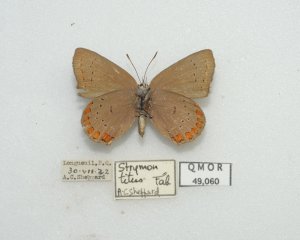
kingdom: Animalia
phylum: Arthropoda
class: Insecta
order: Lepidoptera
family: Lycaenidae
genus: Harkenclenus
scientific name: Harkenclenus titus
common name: Coral Hairstreak
